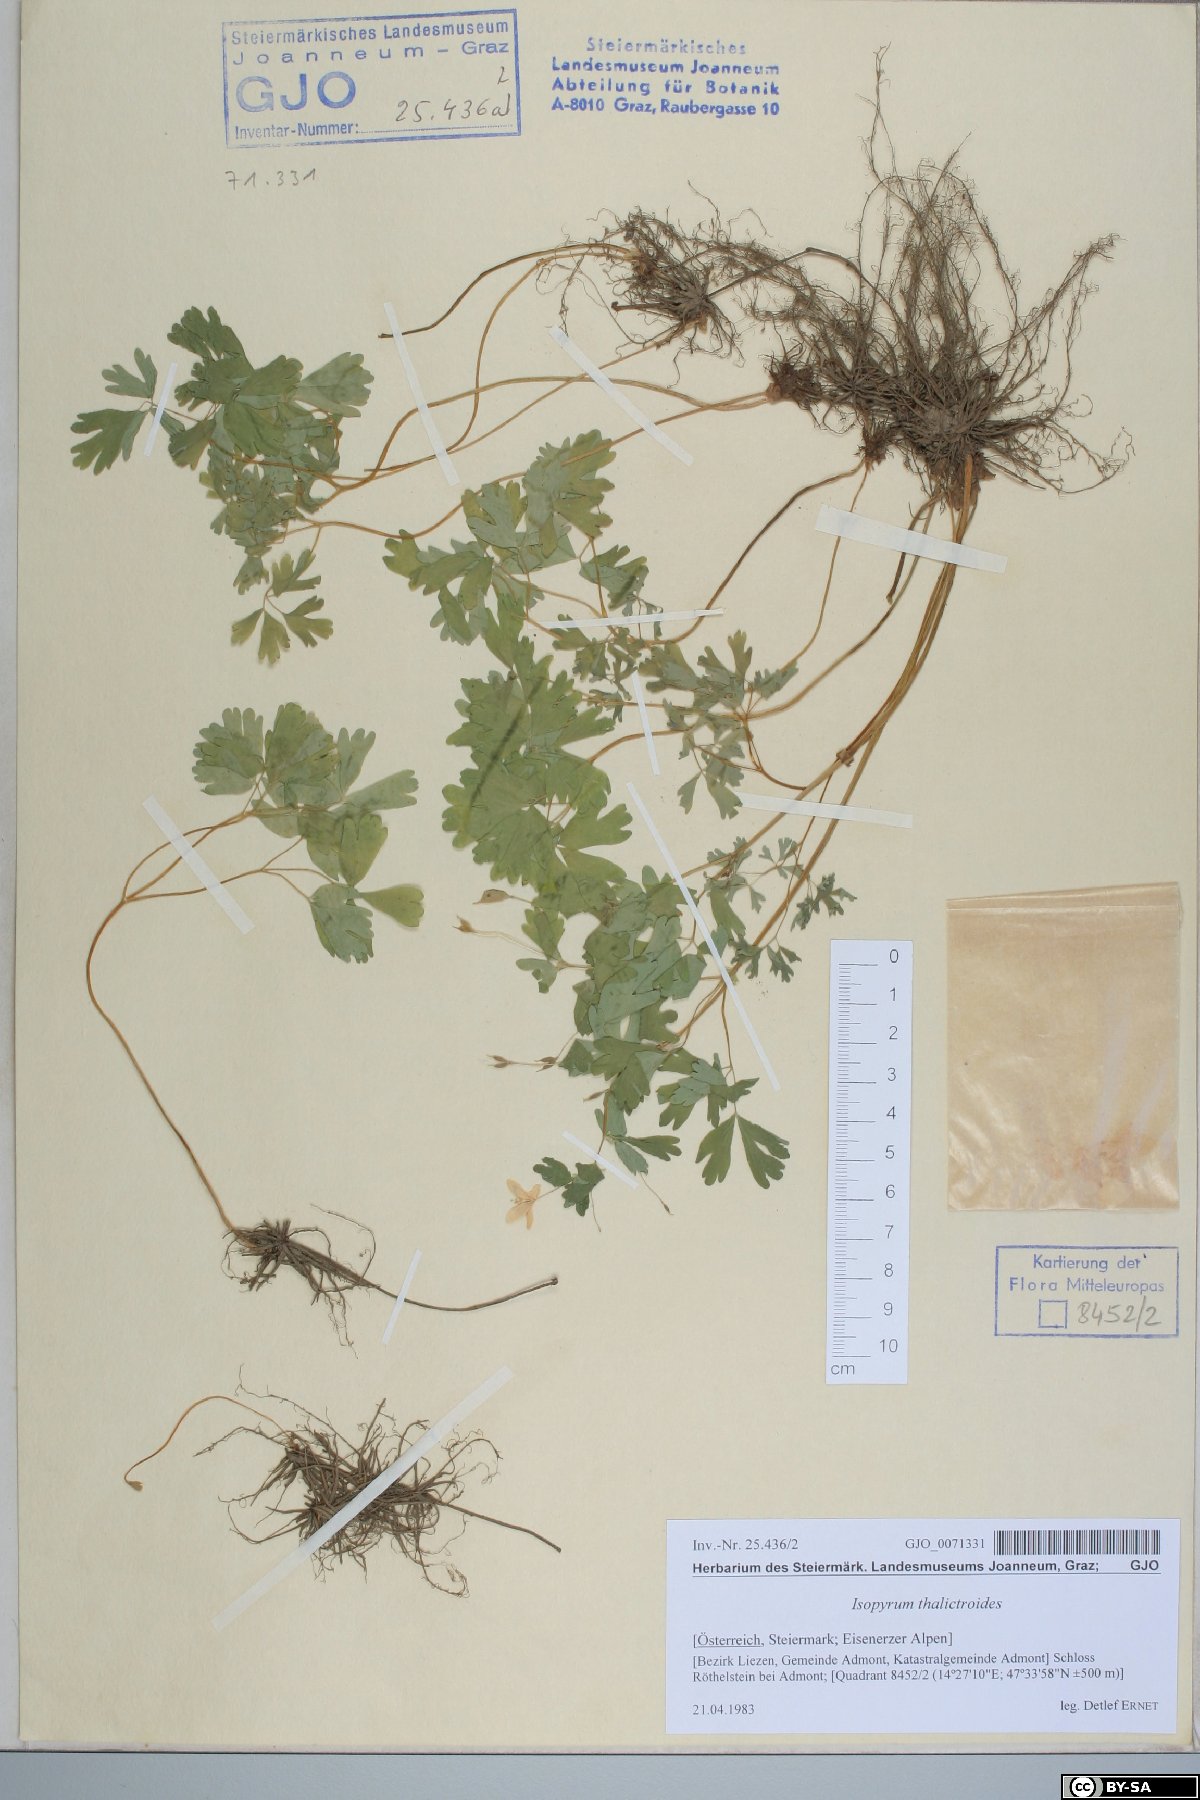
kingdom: Plantae
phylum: Tracheophyta
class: Magnoliopsida
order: Ranunculales
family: Ranunculaceae
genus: Isopyrum
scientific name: Isopyrum thalictroides
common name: Isopyrum
